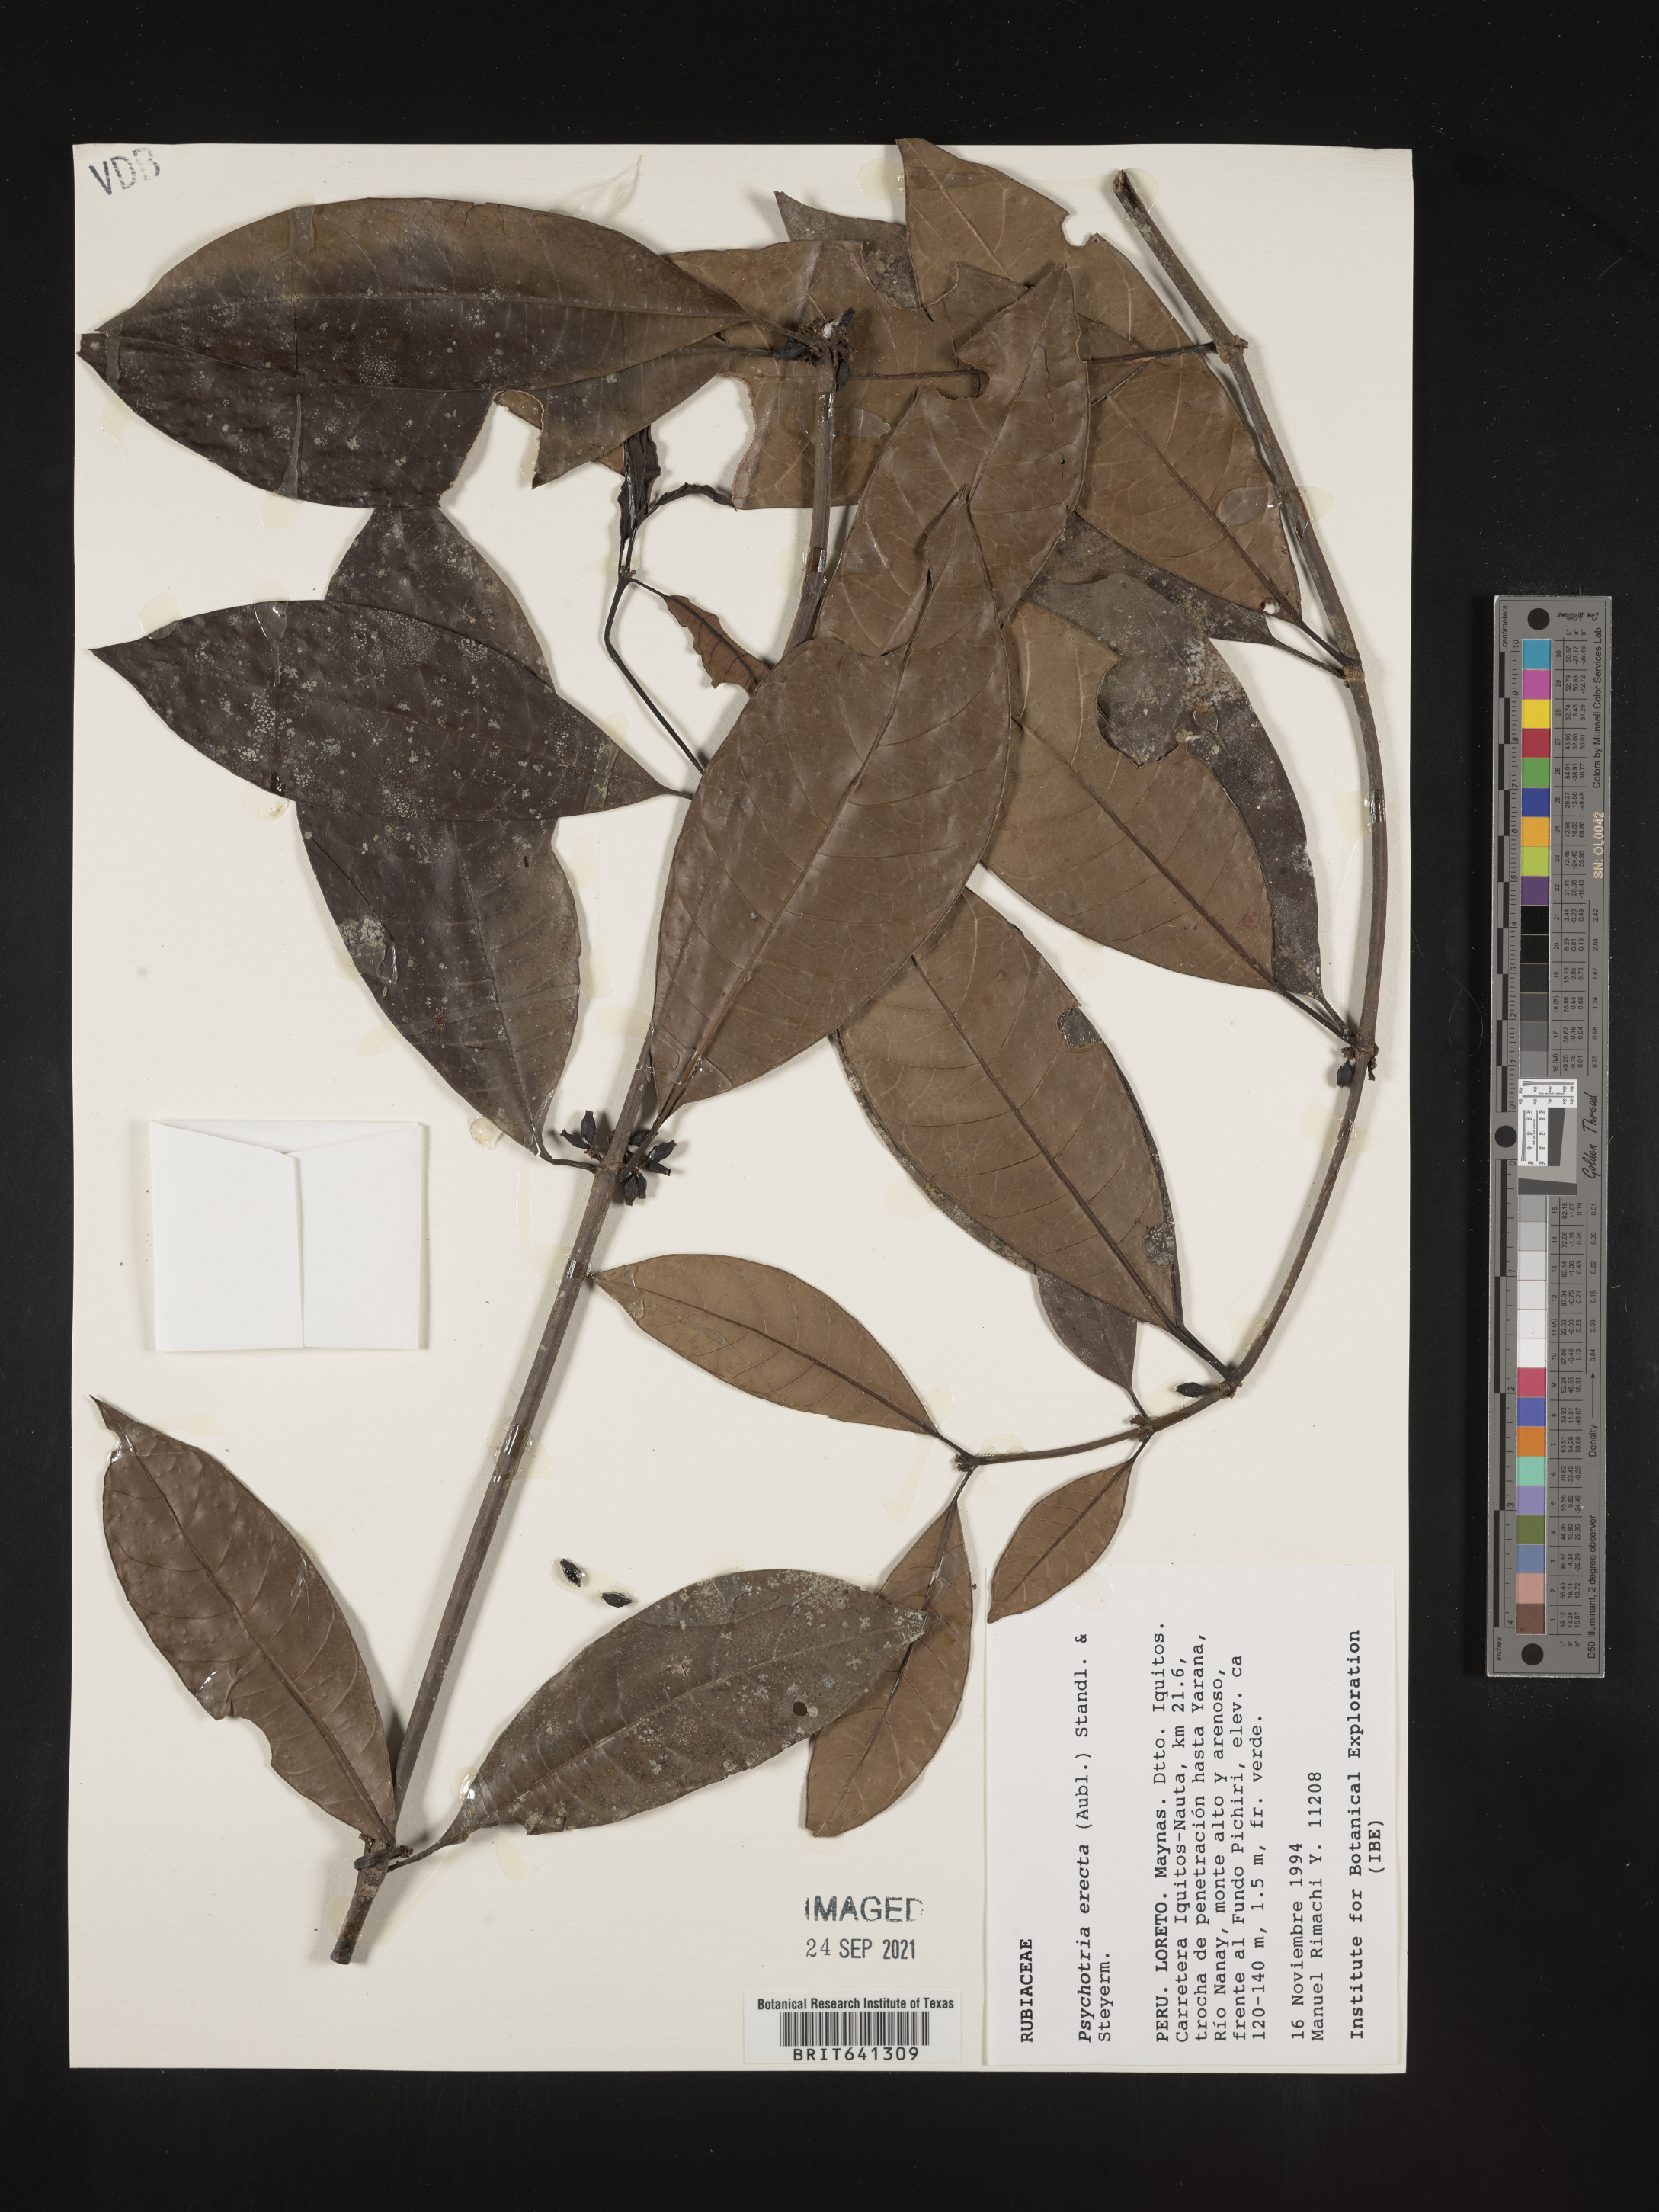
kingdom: Plantae
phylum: Tracheophyta
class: Magnoliopsida
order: Gentianales
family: Rubiaceae
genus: Psychotria
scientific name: Psychotria
